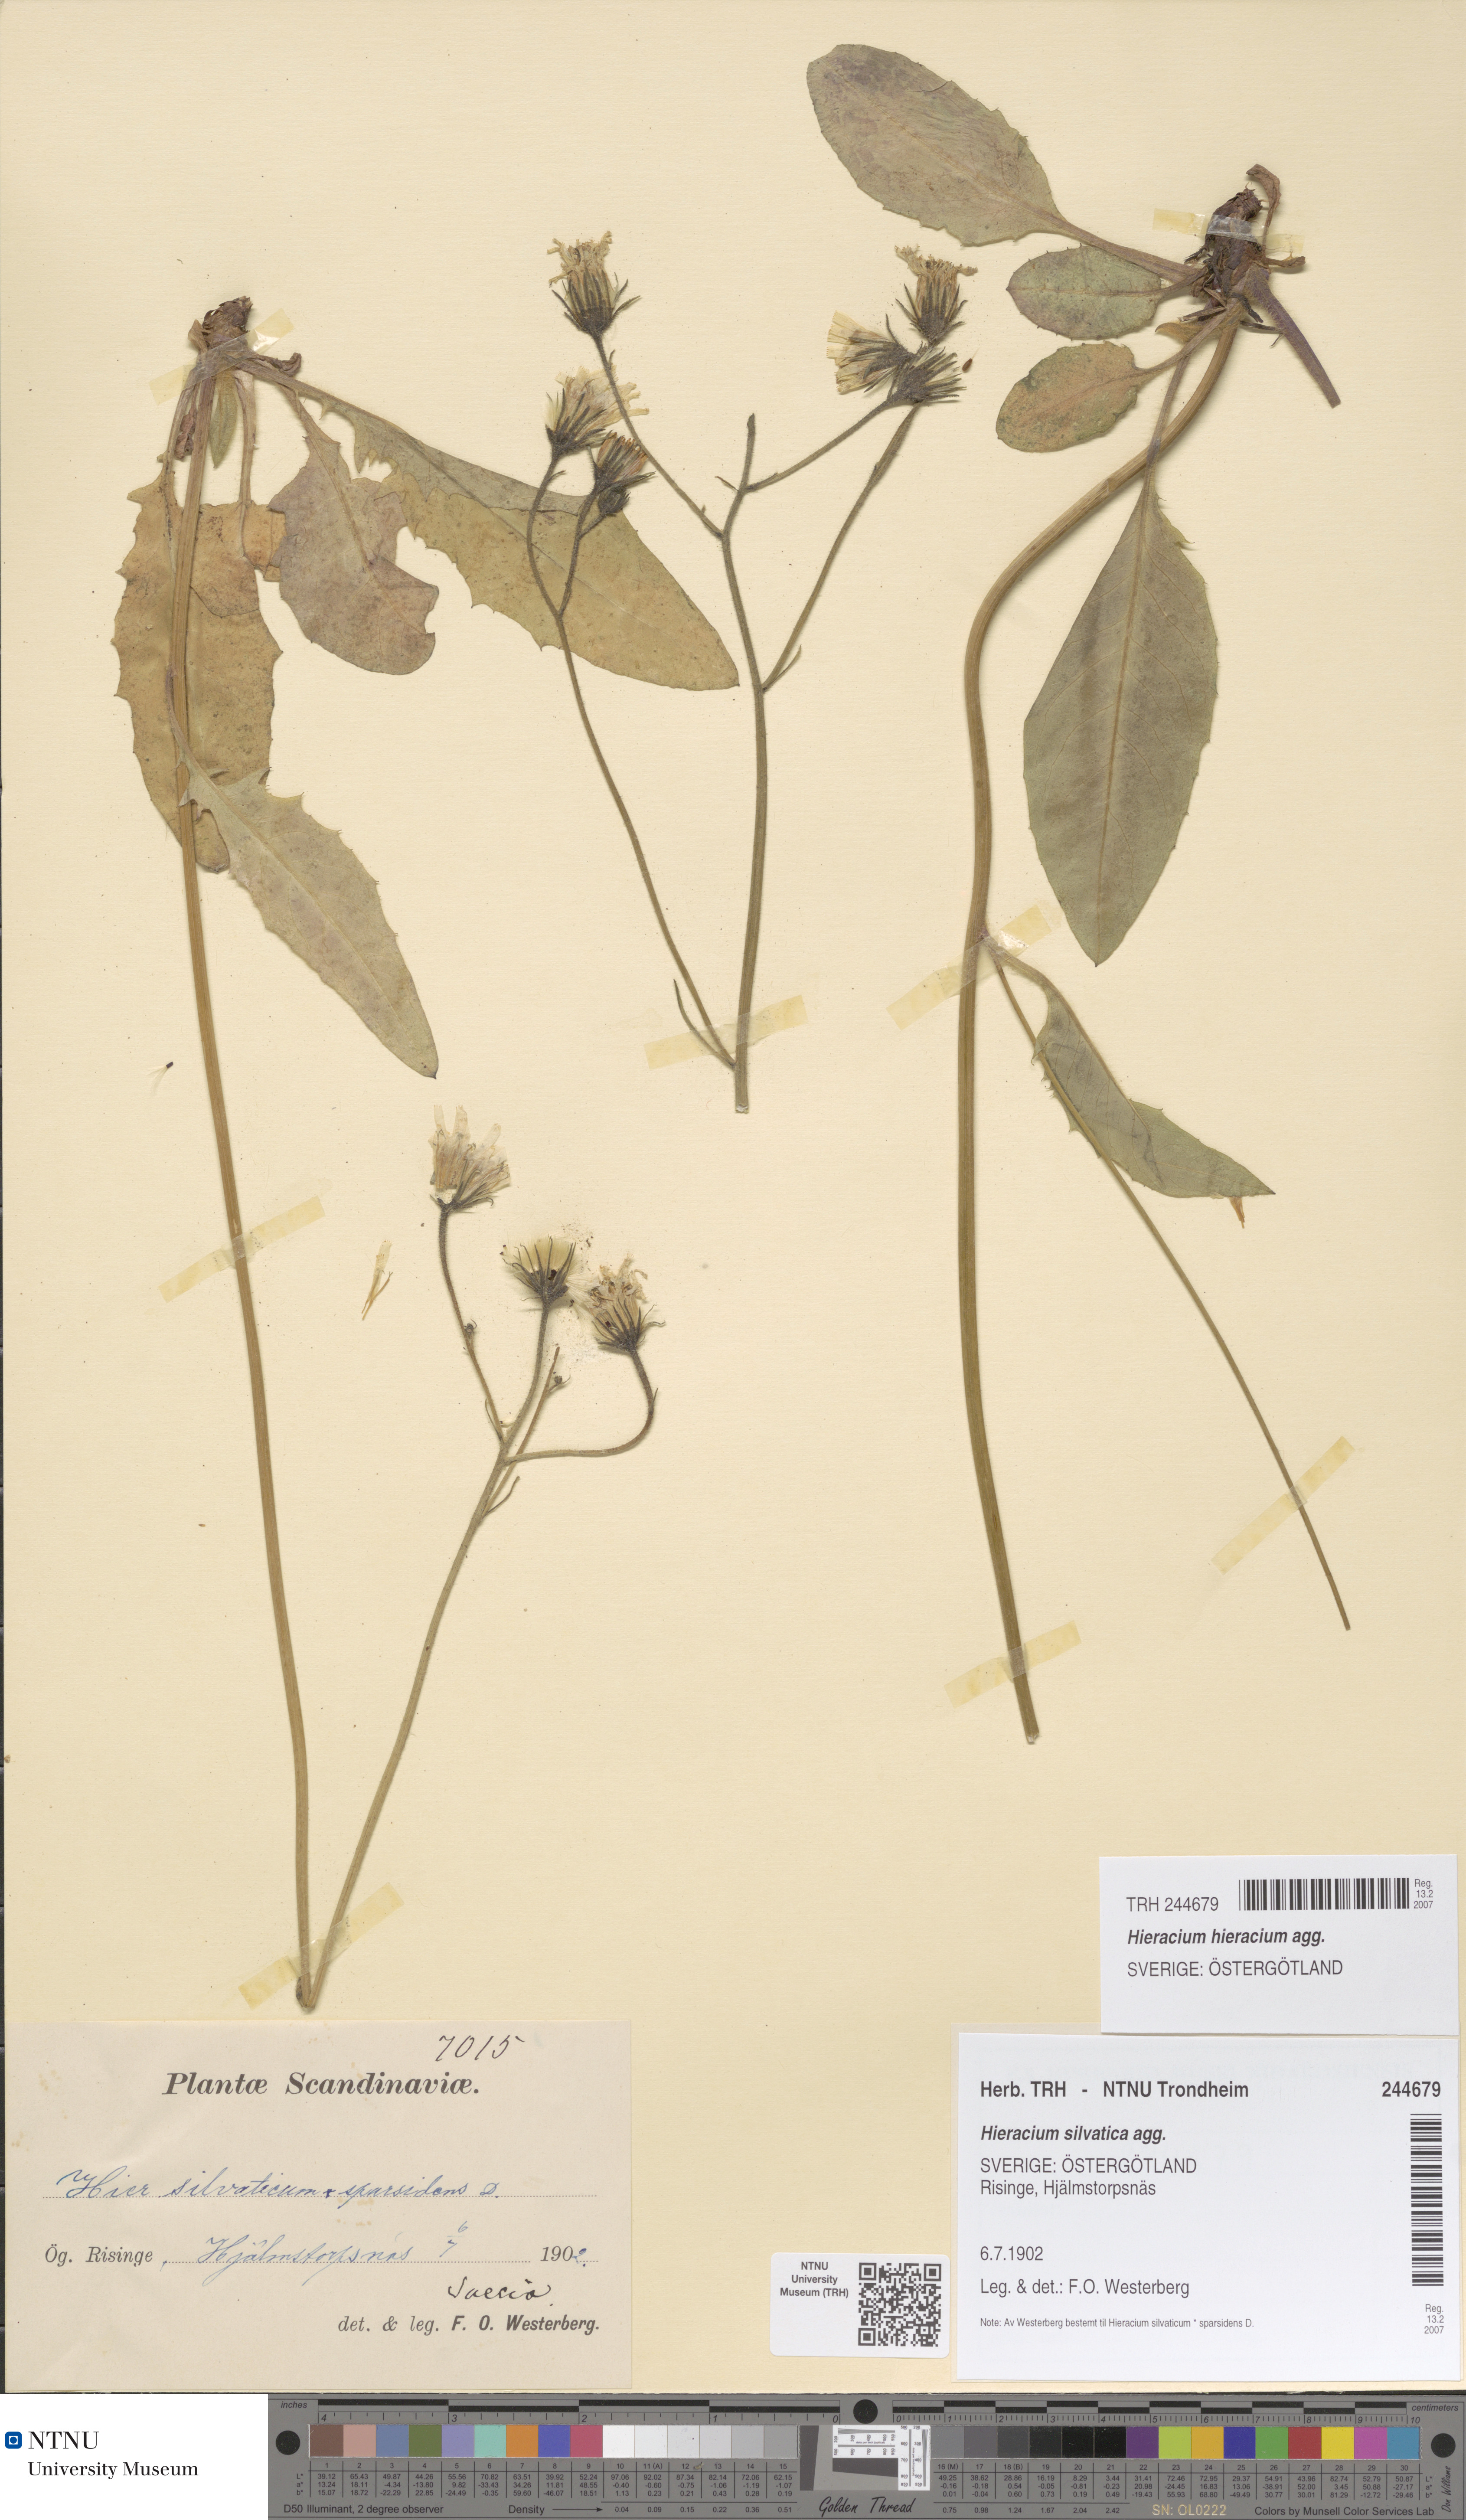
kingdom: Plantae
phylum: Tracheophyta
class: Magnoliopsida
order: Asterales
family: Asteraceae
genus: Hieracium
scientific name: Hieracium
